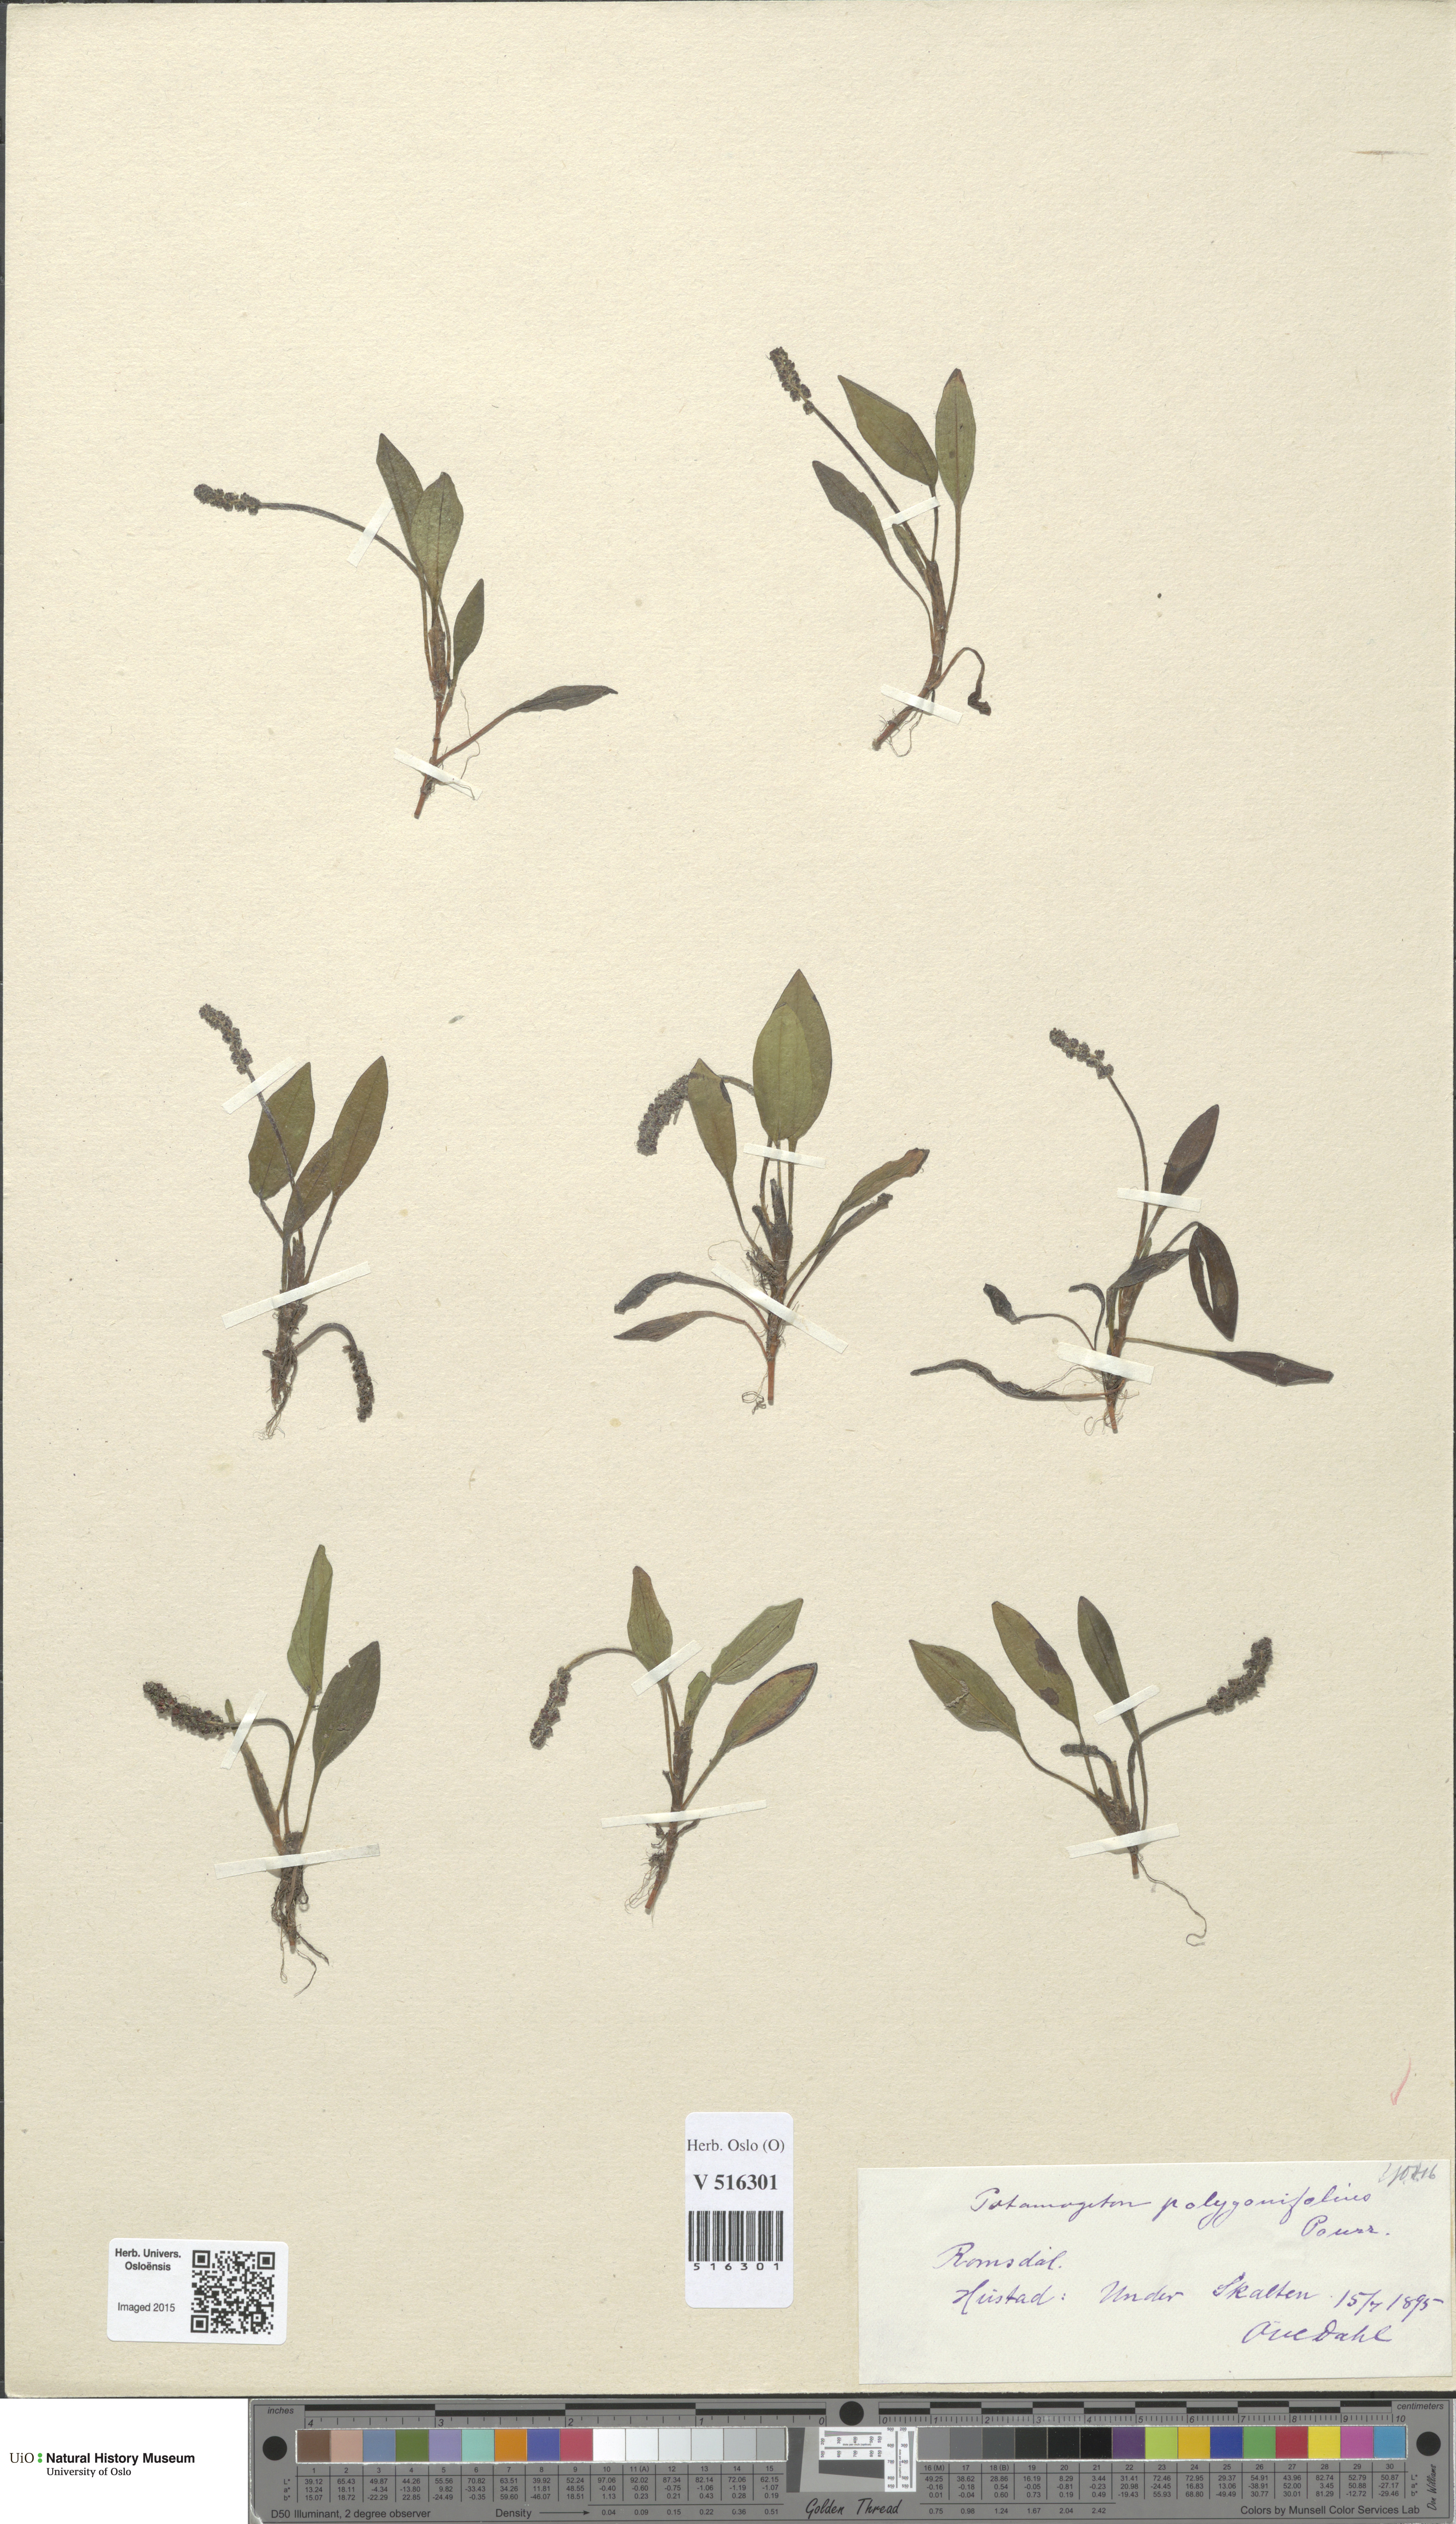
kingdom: Plantae
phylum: Tracheophyta
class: Liliopsida
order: Alismatales
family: Potamogetonaceae
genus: Potamogeton
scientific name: Potamogeton polygonifolius
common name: Bog pondweed
